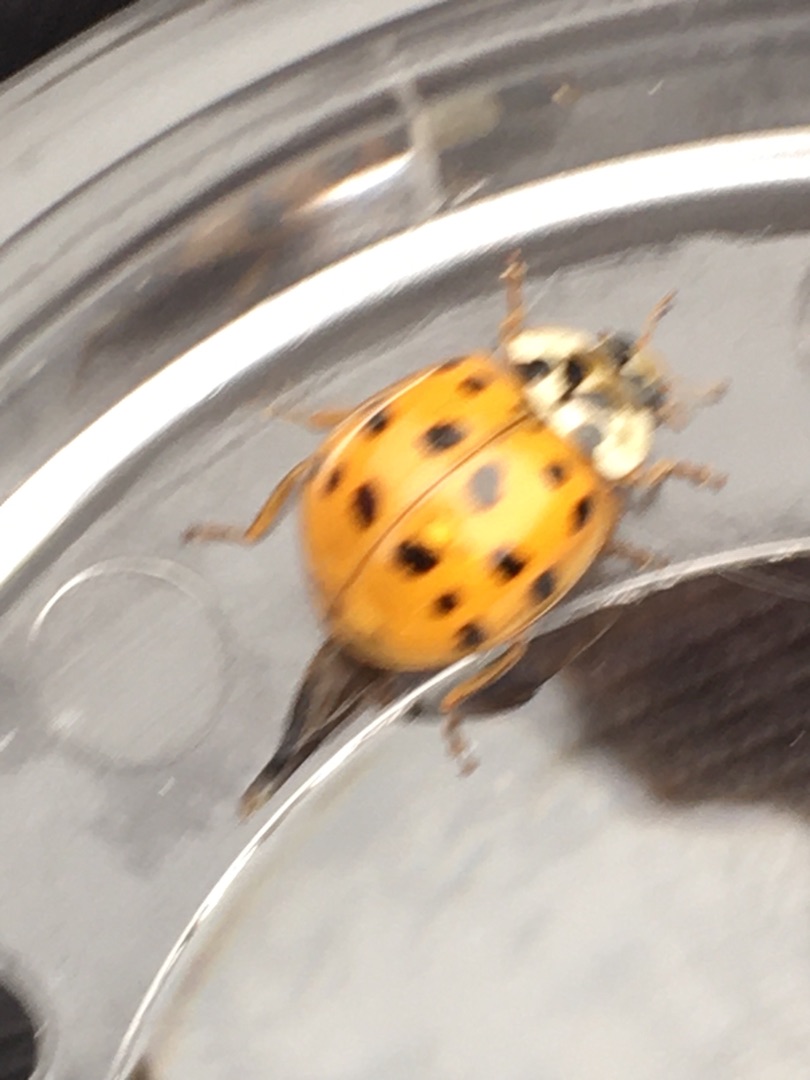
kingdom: Animalia
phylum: Arthropoda
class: Insecta
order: Coleoptera
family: Coccinellidae
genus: Harmonia
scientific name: Harmonia axyridis
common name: Harlekinmariehøne
